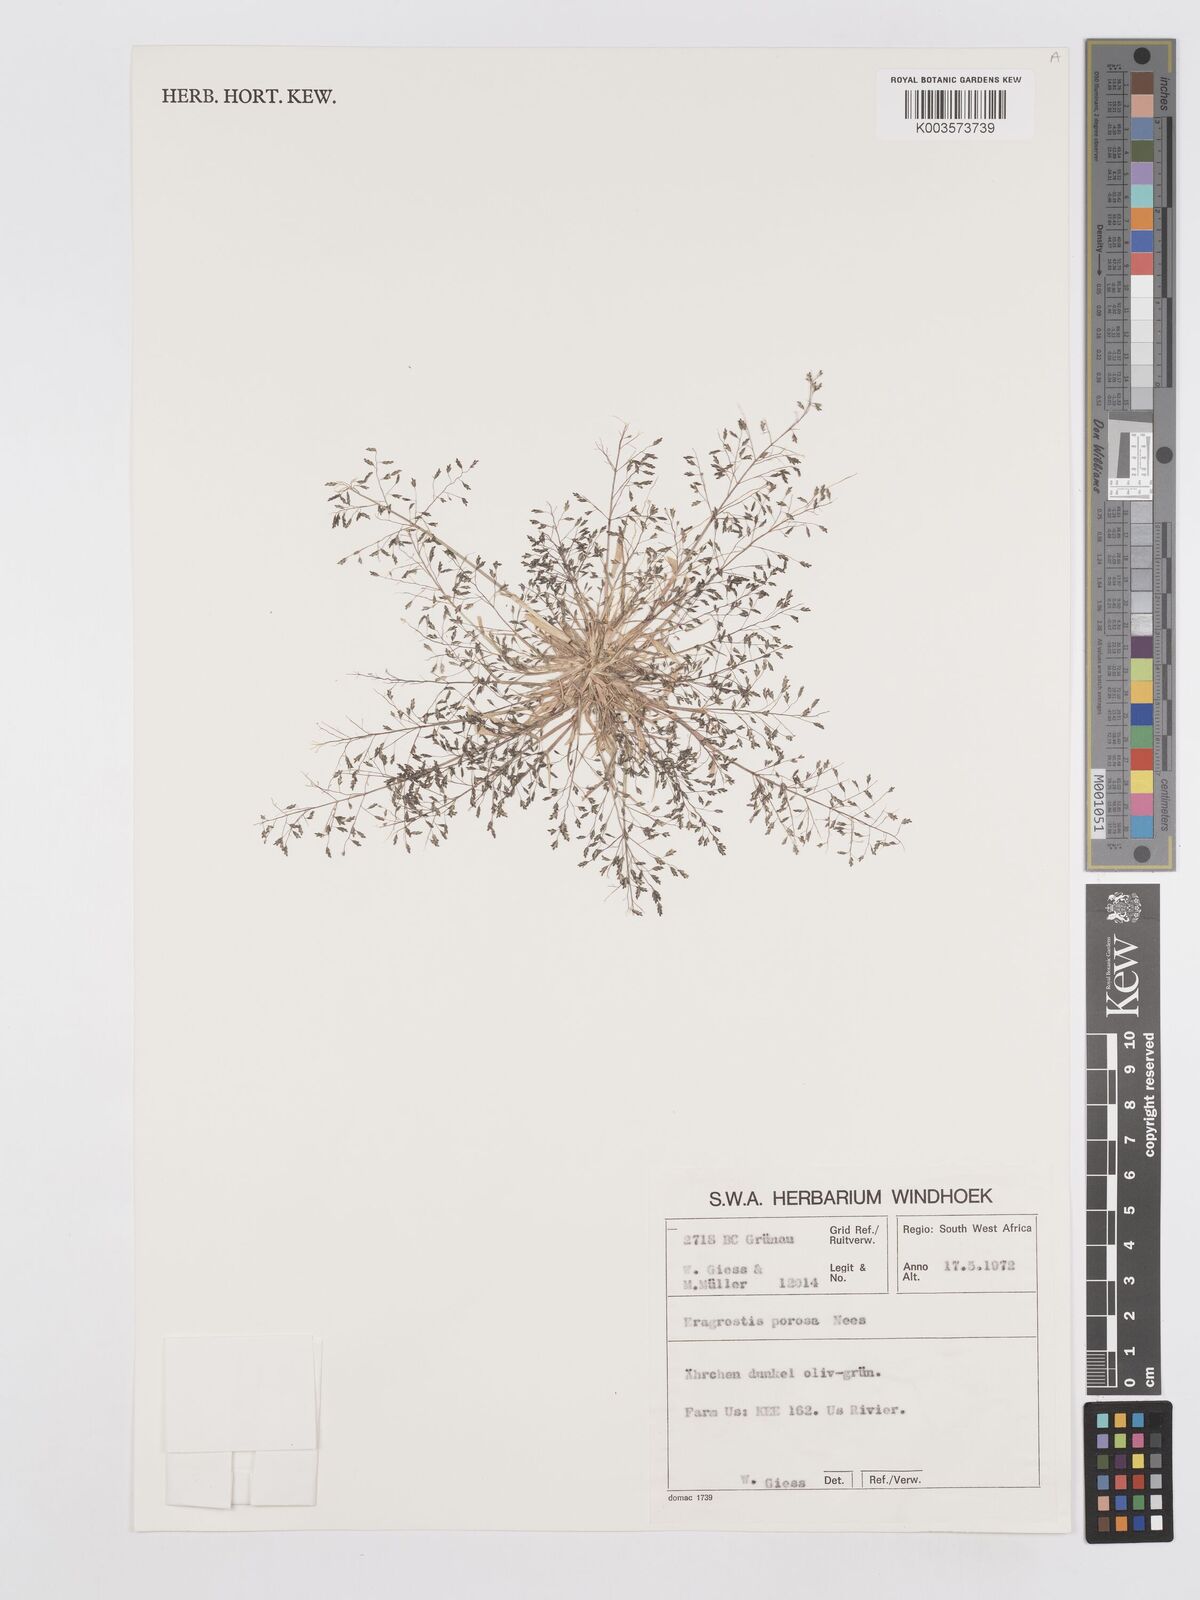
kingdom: Plantae
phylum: Tracheophyta
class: Liliopsida
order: Poales
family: Poaceae
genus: Eragrostis
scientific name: Eragrostis porosa
